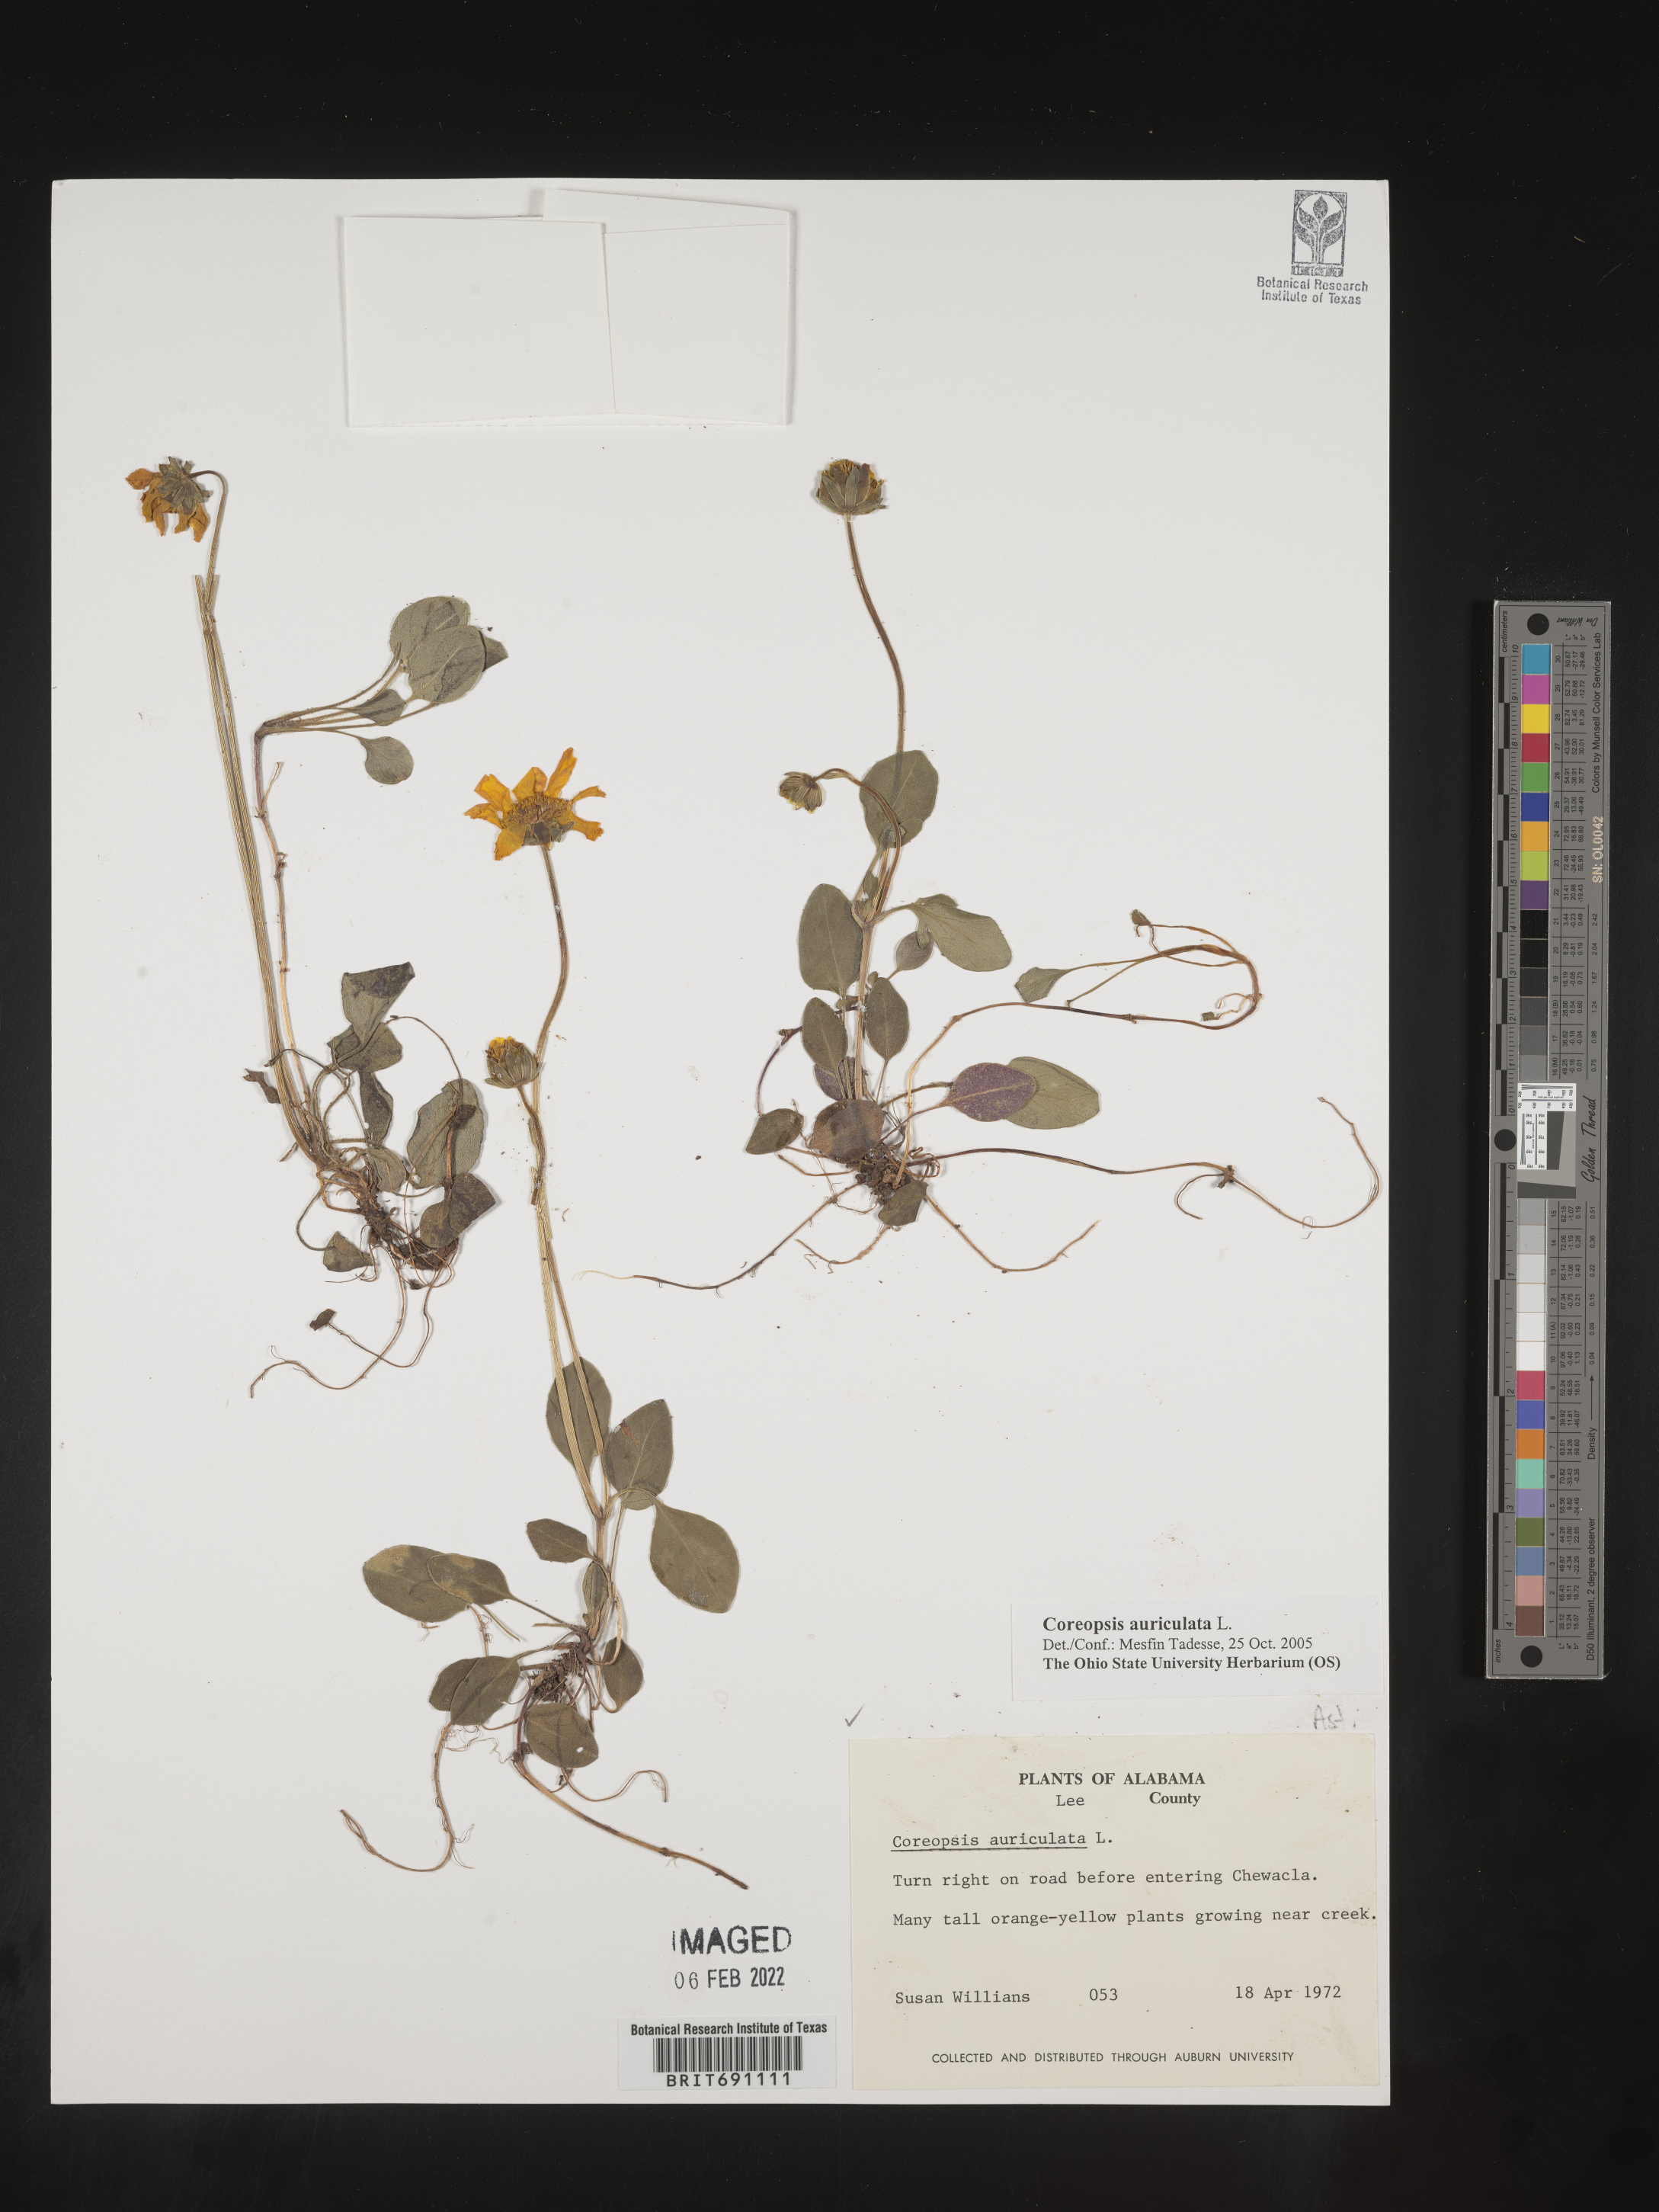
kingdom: Plantae
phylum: Tracheophyta
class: Magnoliopsida
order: Asterales
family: Asteraceae
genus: Coreopsis
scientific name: Coreopsis auriculata
